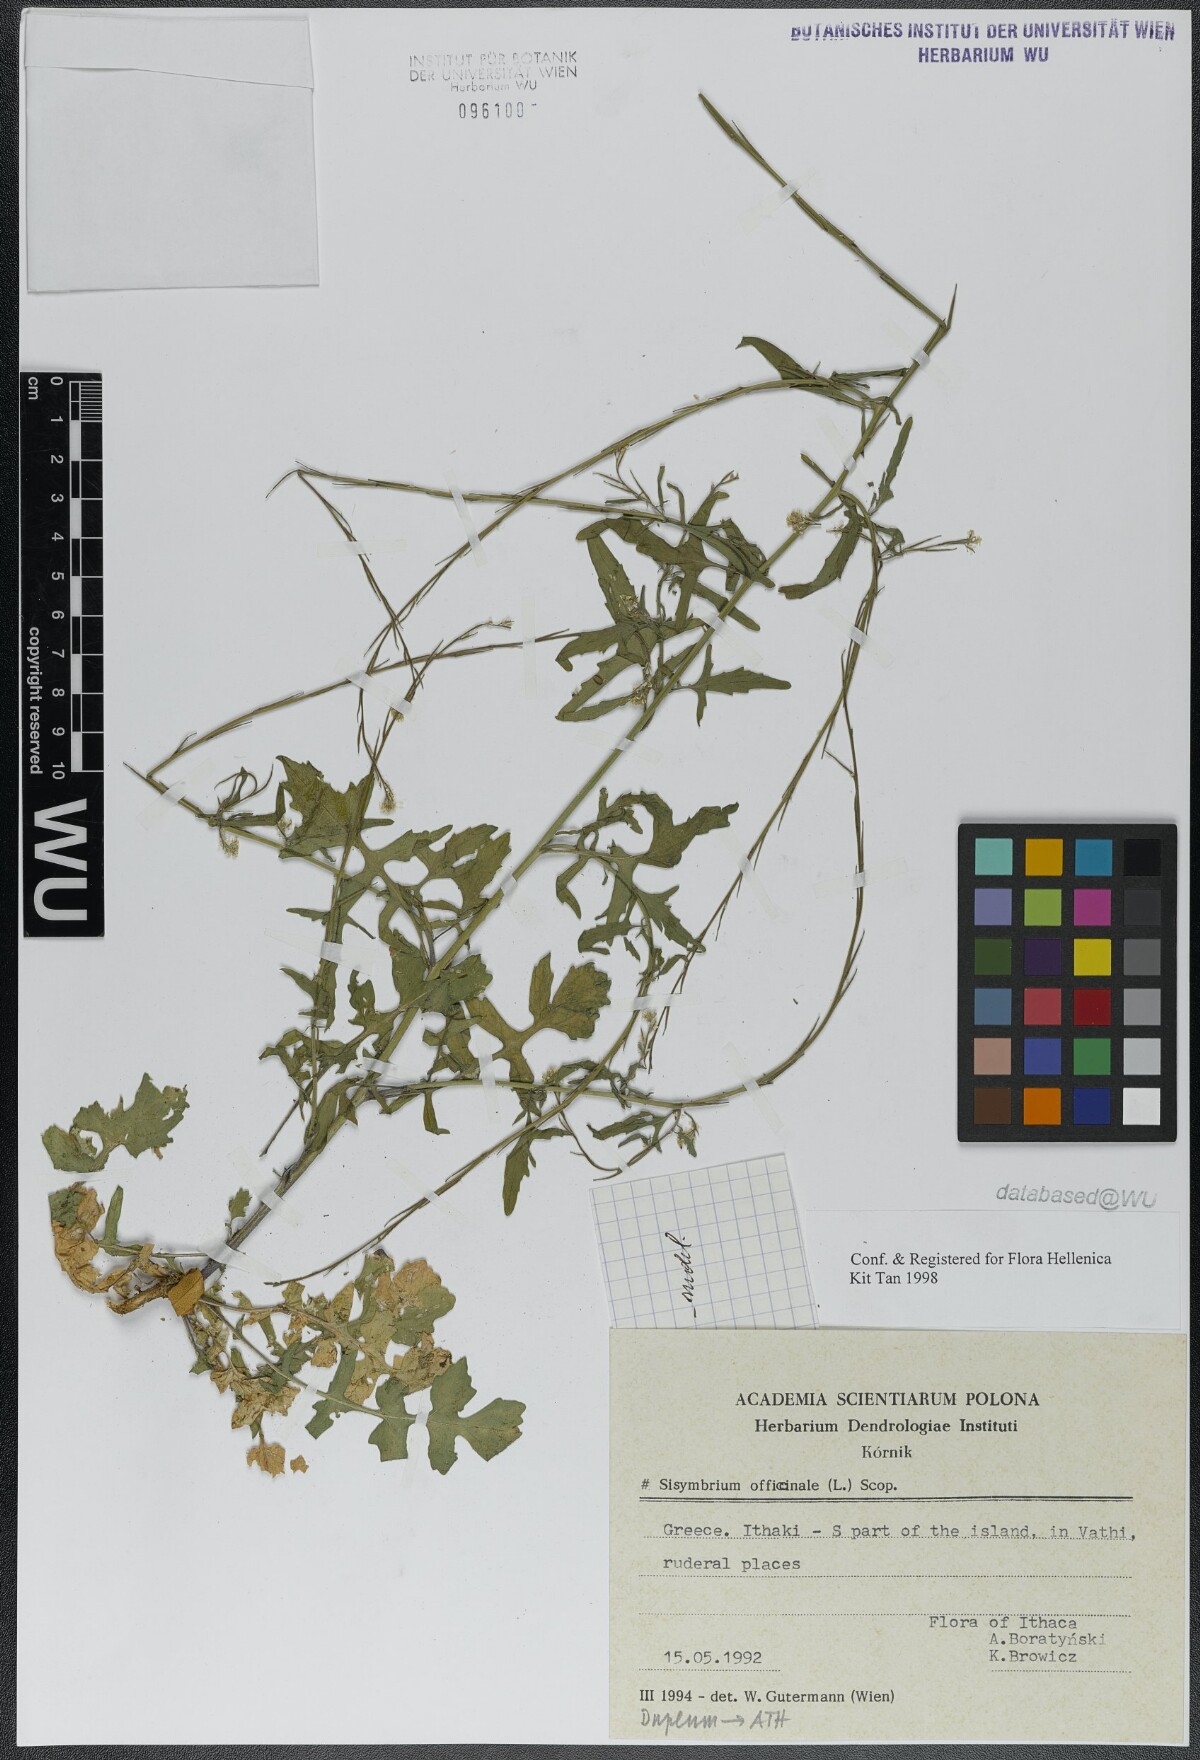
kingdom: Plantae
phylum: Tracheophyta
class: Magnoliopsida
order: Brassicales
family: Brassicaceae
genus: Sisymbrium
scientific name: Sisymbrium officinale
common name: Hedge mustard
